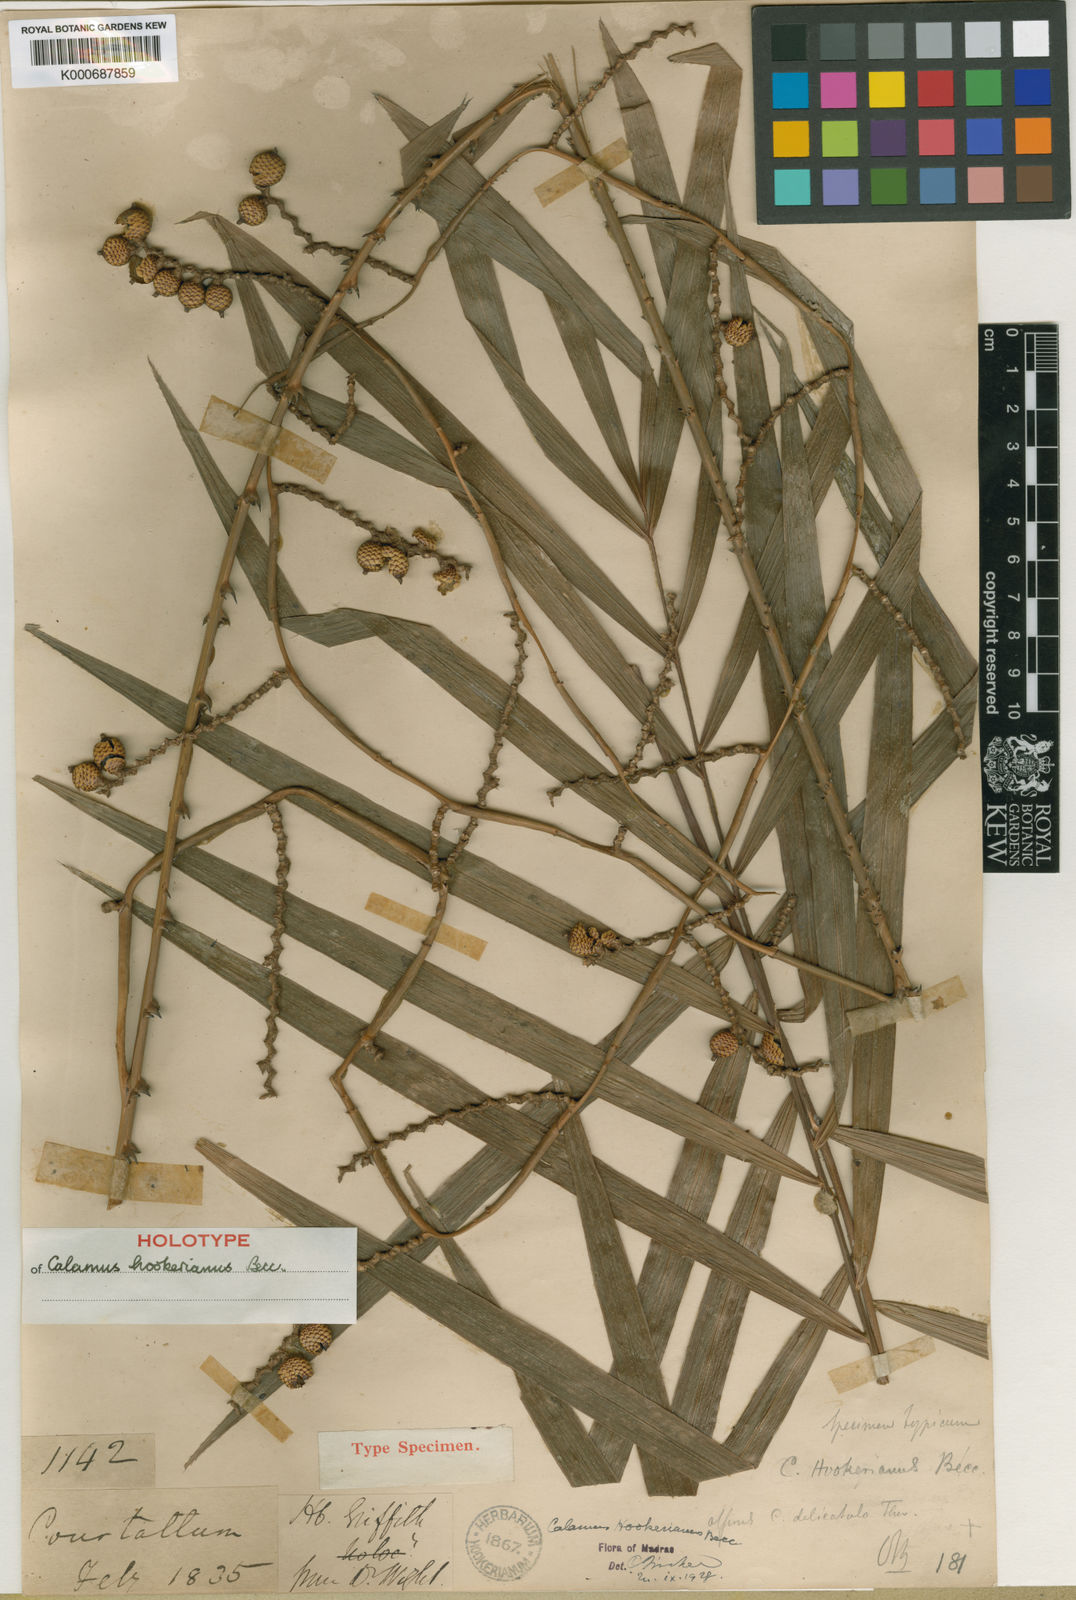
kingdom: Plantae
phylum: Tracheophyta
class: Liliopsida
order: Arecales
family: Arecaceae
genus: Calamus
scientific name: Calamus hookerianus
